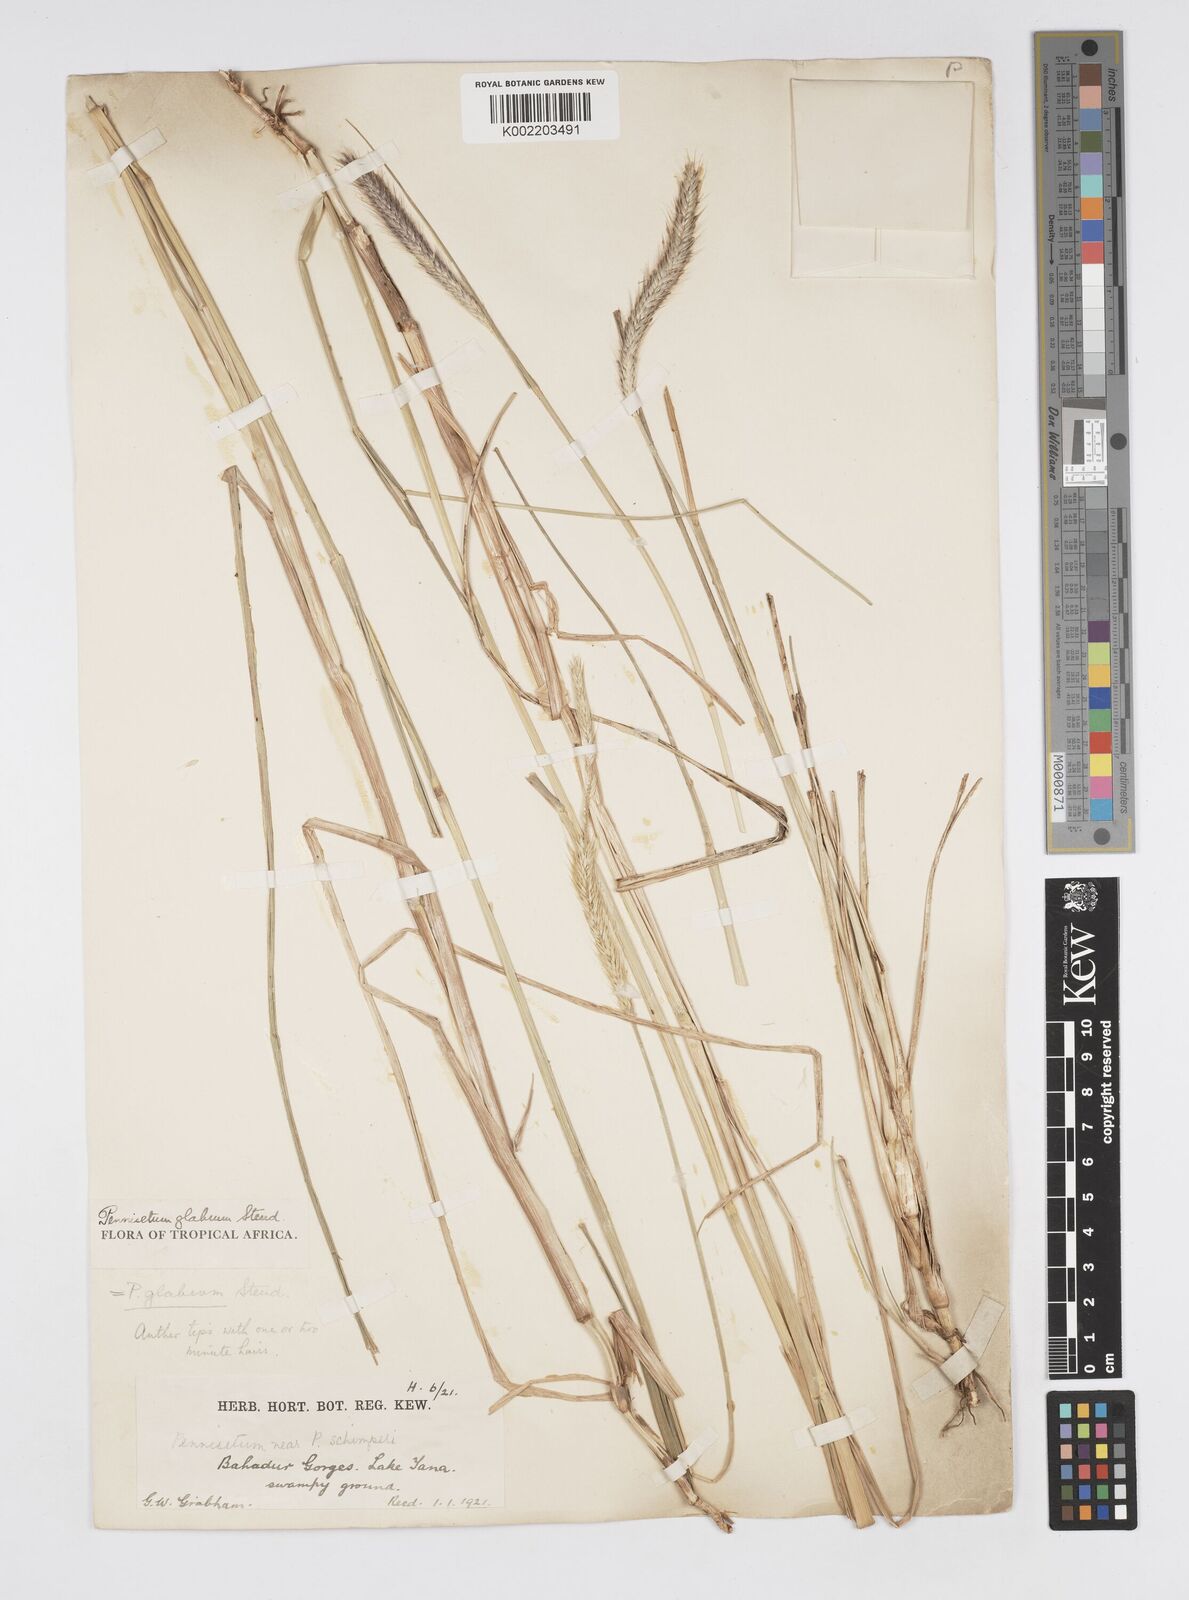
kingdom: Plantae
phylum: Tracheophyta
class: Liliopsida
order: Poales
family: Poaceae
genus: Cenchrus
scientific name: Cenchrus geniculatus
